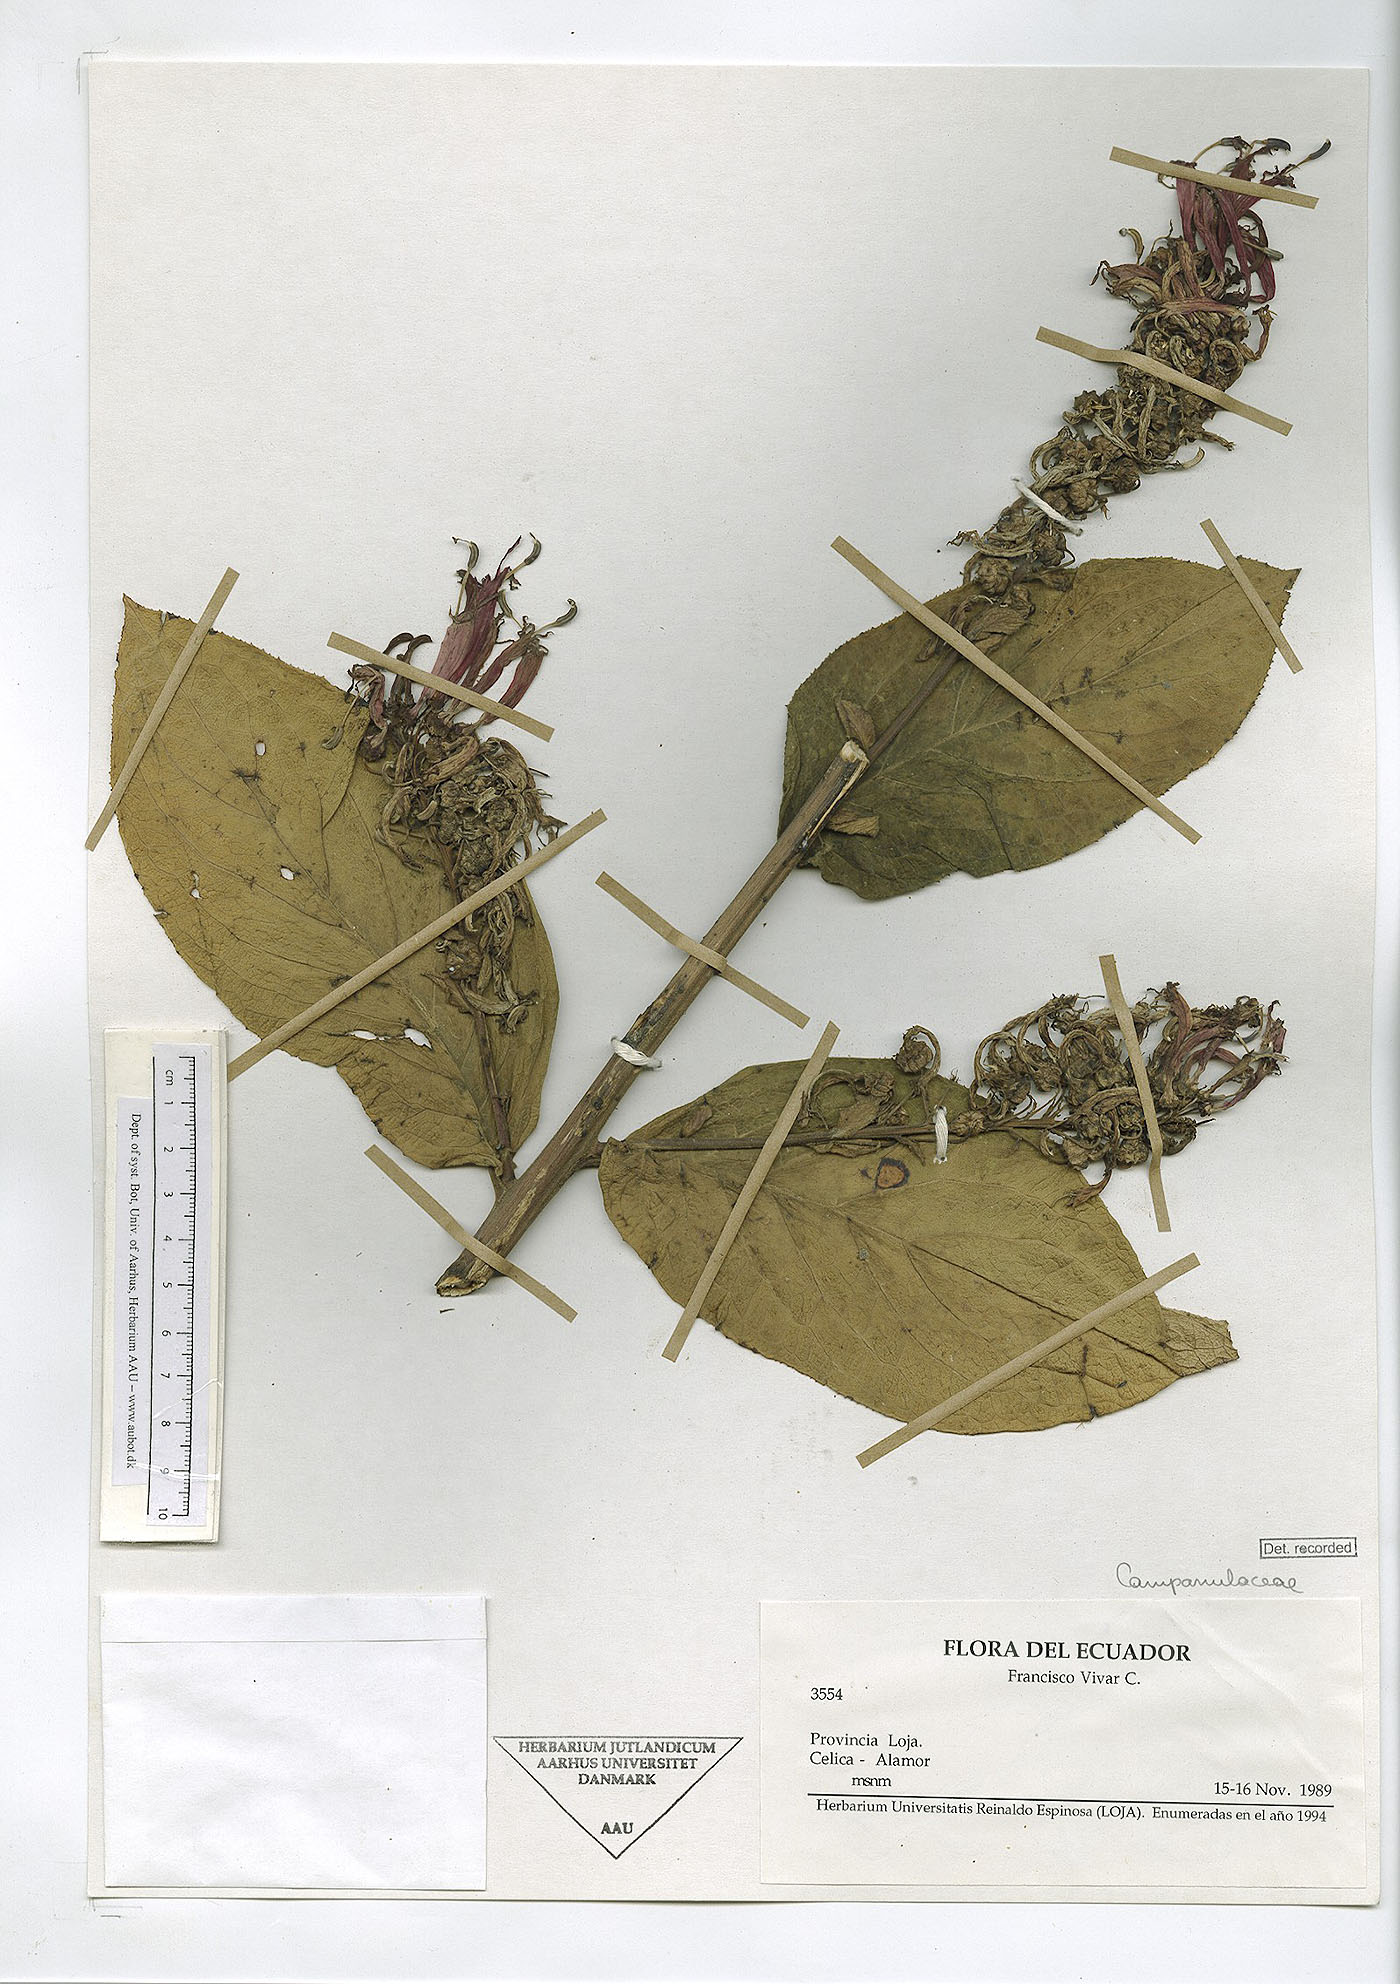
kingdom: Plantae
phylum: Tracheophyta
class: Magnoliopsida
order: Asterales
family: Campanulaceae
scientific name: Campanulaceae
